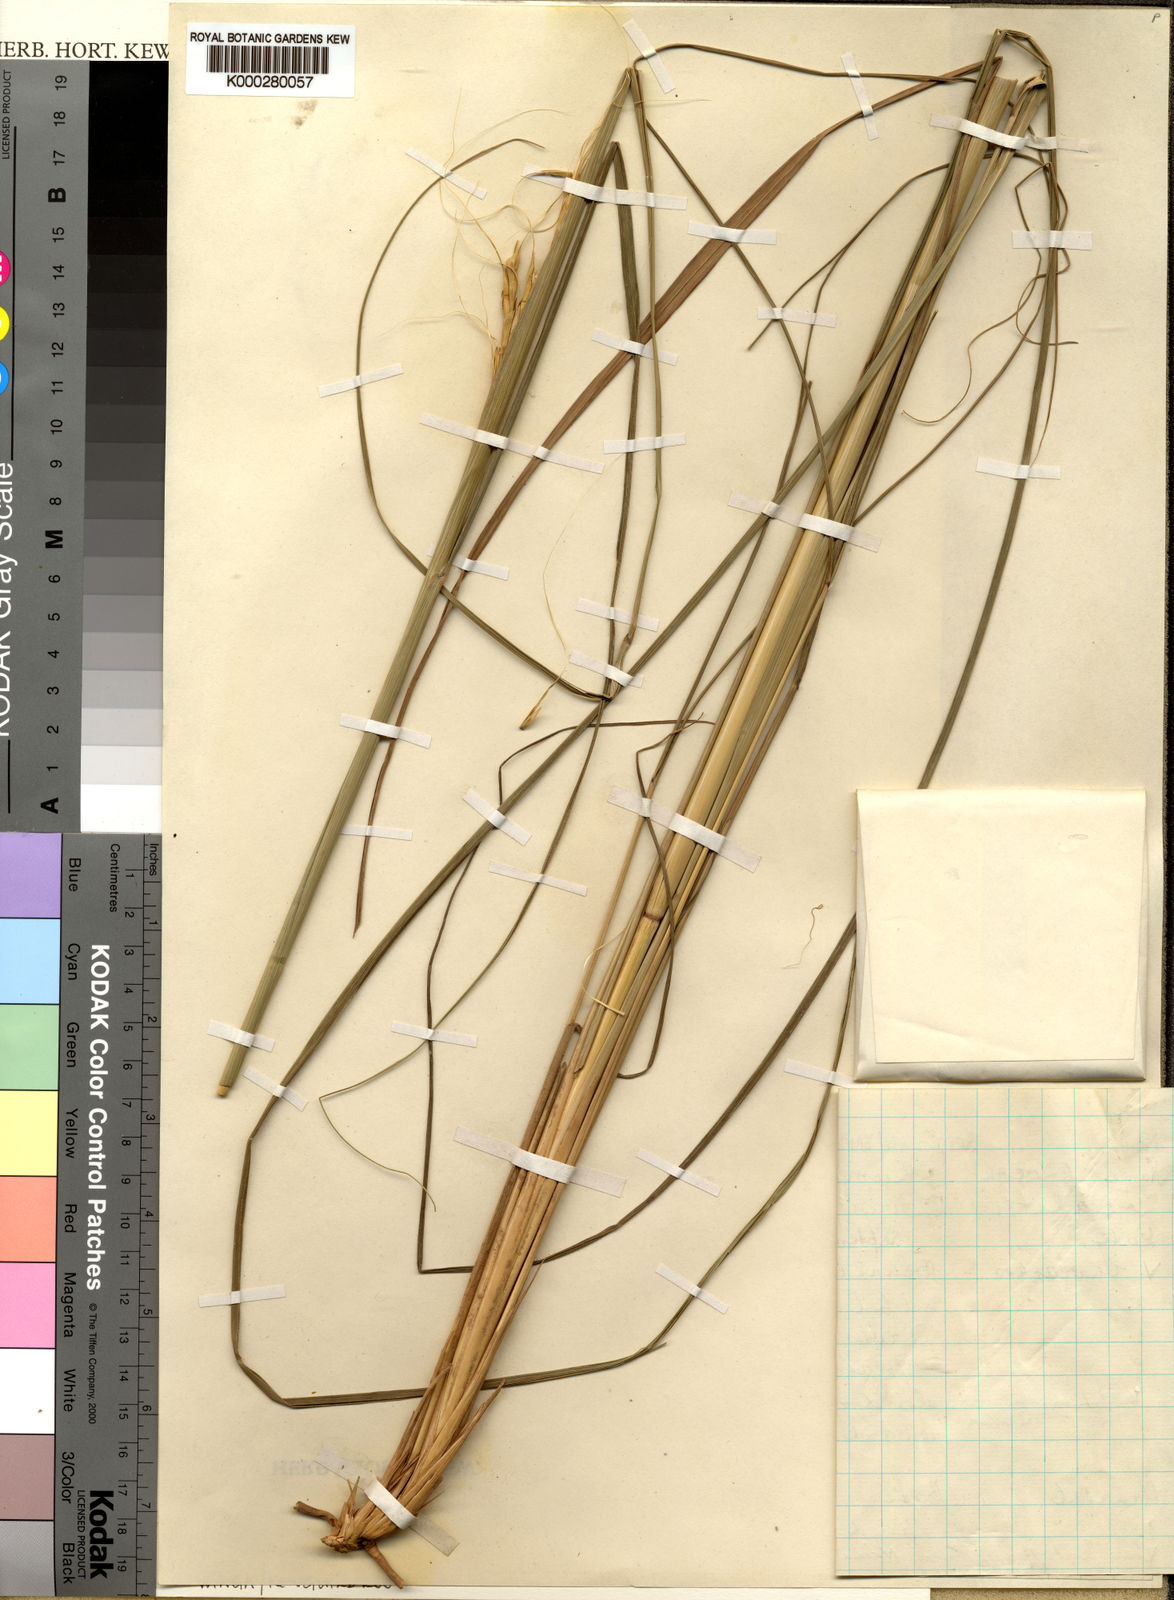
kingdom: Plantae
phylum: Tracheophyta
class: Liliopsida
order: Poales
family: Poaceae
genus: Urelytrum
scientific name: Urelytrum muricatum
